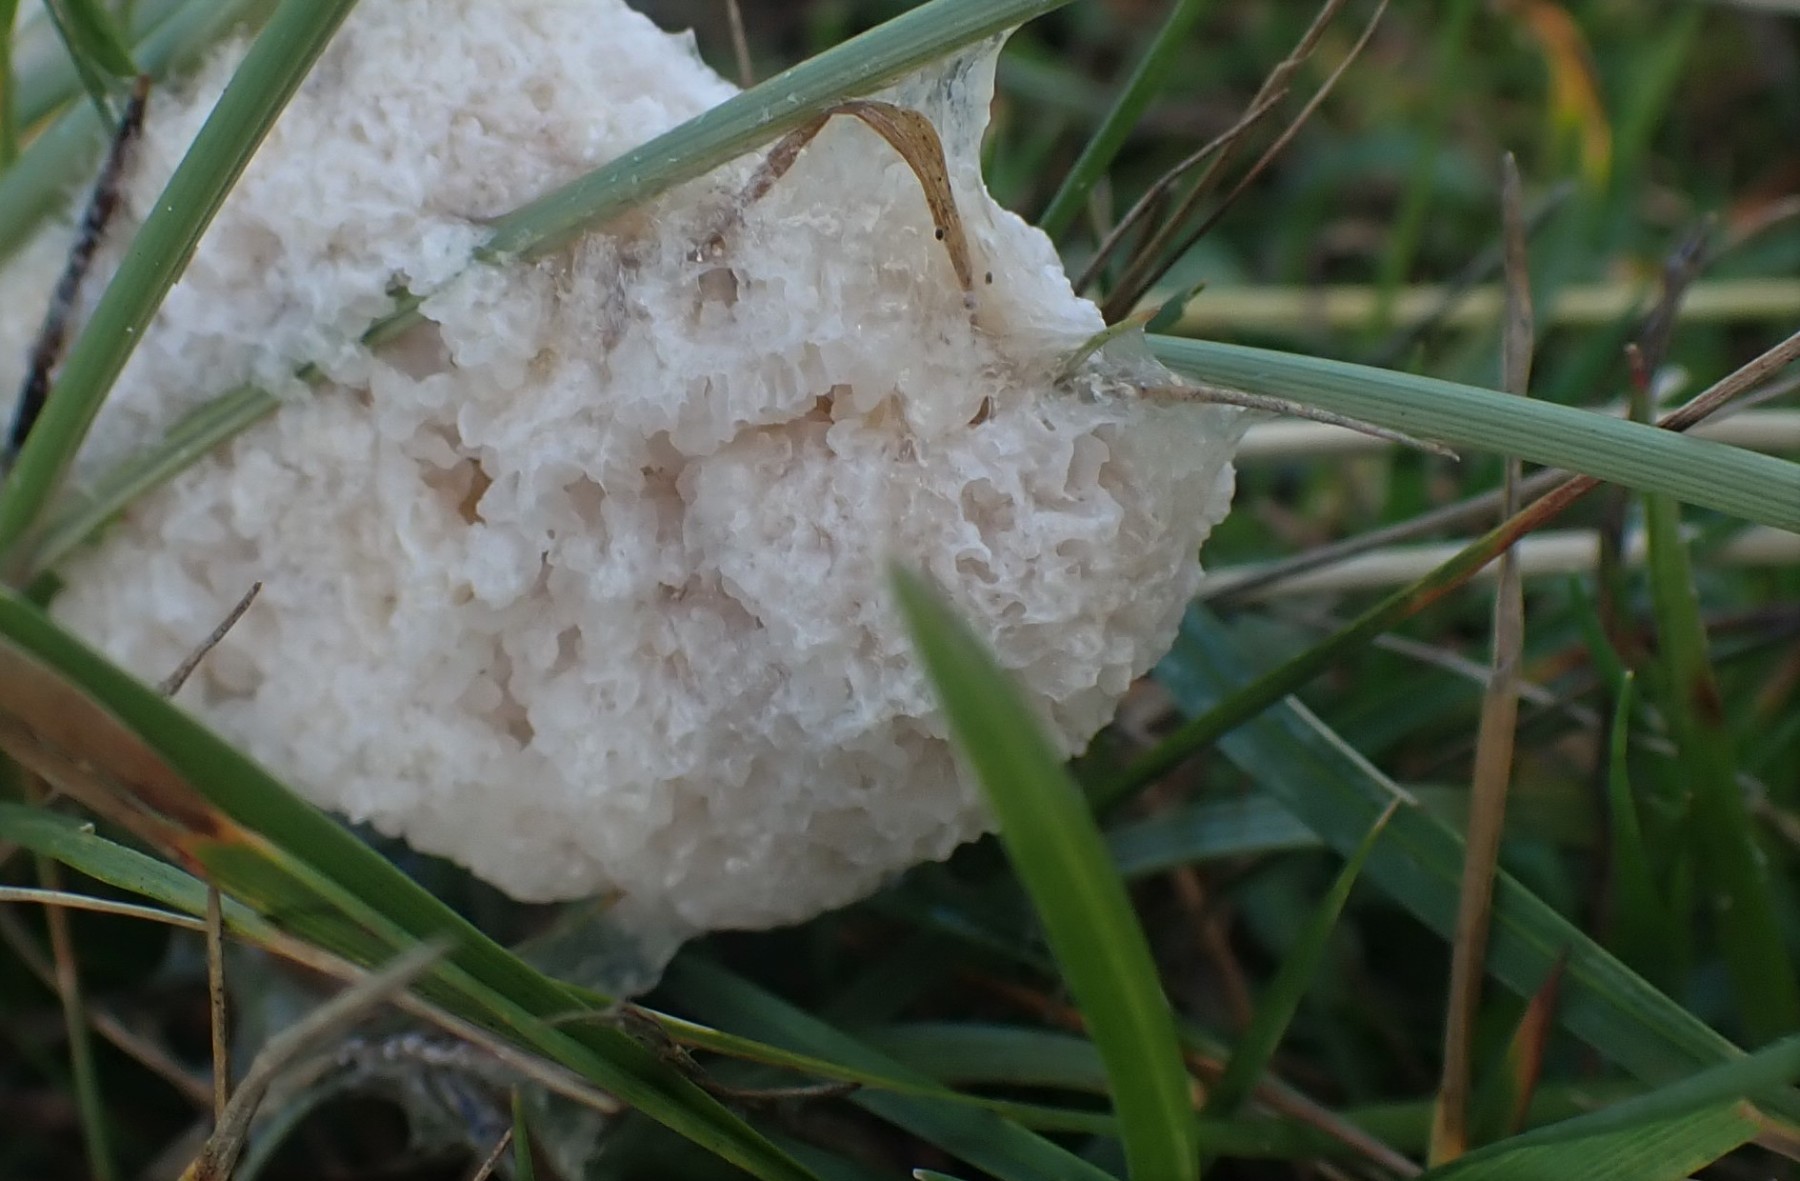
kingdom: Protozoa
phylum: Mycetozoa
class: Myxomycetes
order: Physarales
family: Physaraceae
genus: Didymium
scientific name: Didymium
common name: urteskum
